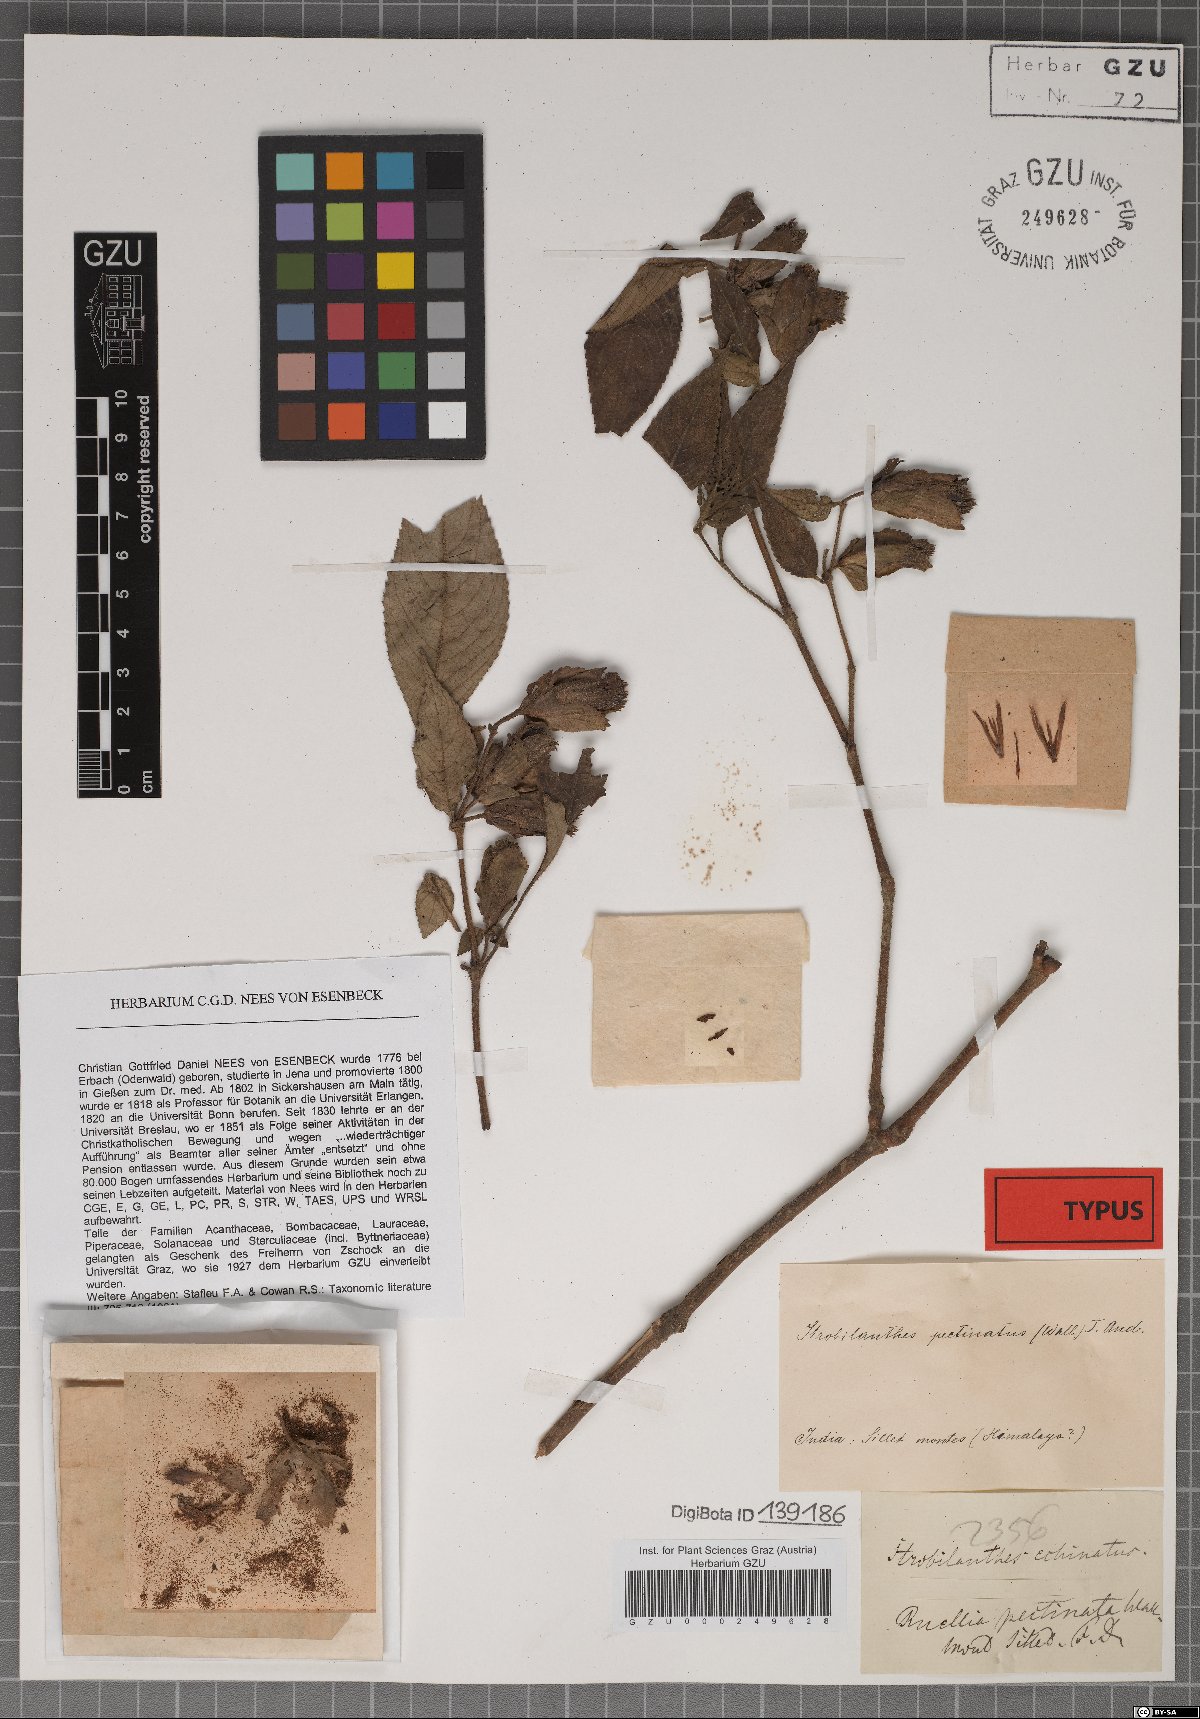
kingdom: Plantae
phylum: Tracheophyta
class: Magnoliopsida
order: Lamiales
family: Acanthaceae
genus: Strobilanthes
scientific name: Strobilanthes echinata
